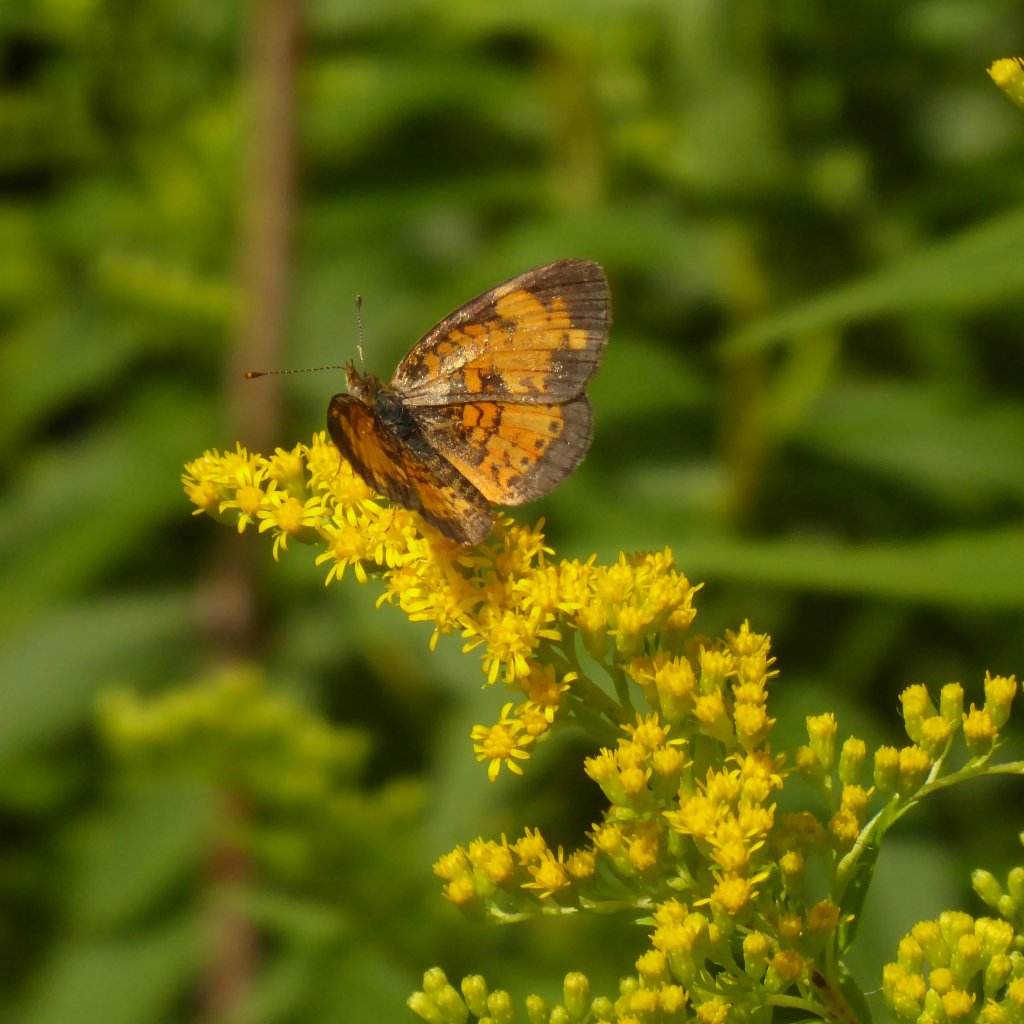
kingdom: Animalia
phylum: Arthropoda
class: Insecta
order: Lepidoptera
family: Nymphalidae
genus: Phyciodes
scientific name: Phyciodes tharos
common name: Northern Crescent
